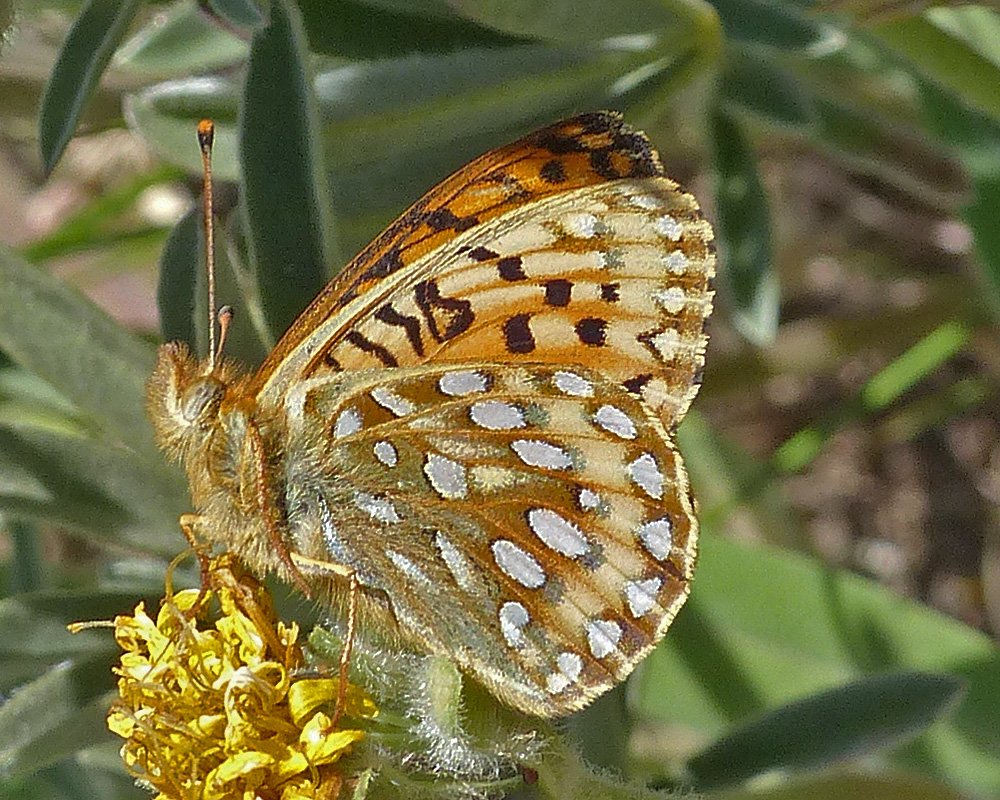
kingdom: Animalia
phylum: Arthropoda
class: Insecta
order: Lepidoptera
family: Nymphalidae
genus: Speyeria
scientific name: Speyeria mormonia
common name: Mormon Fritillary
